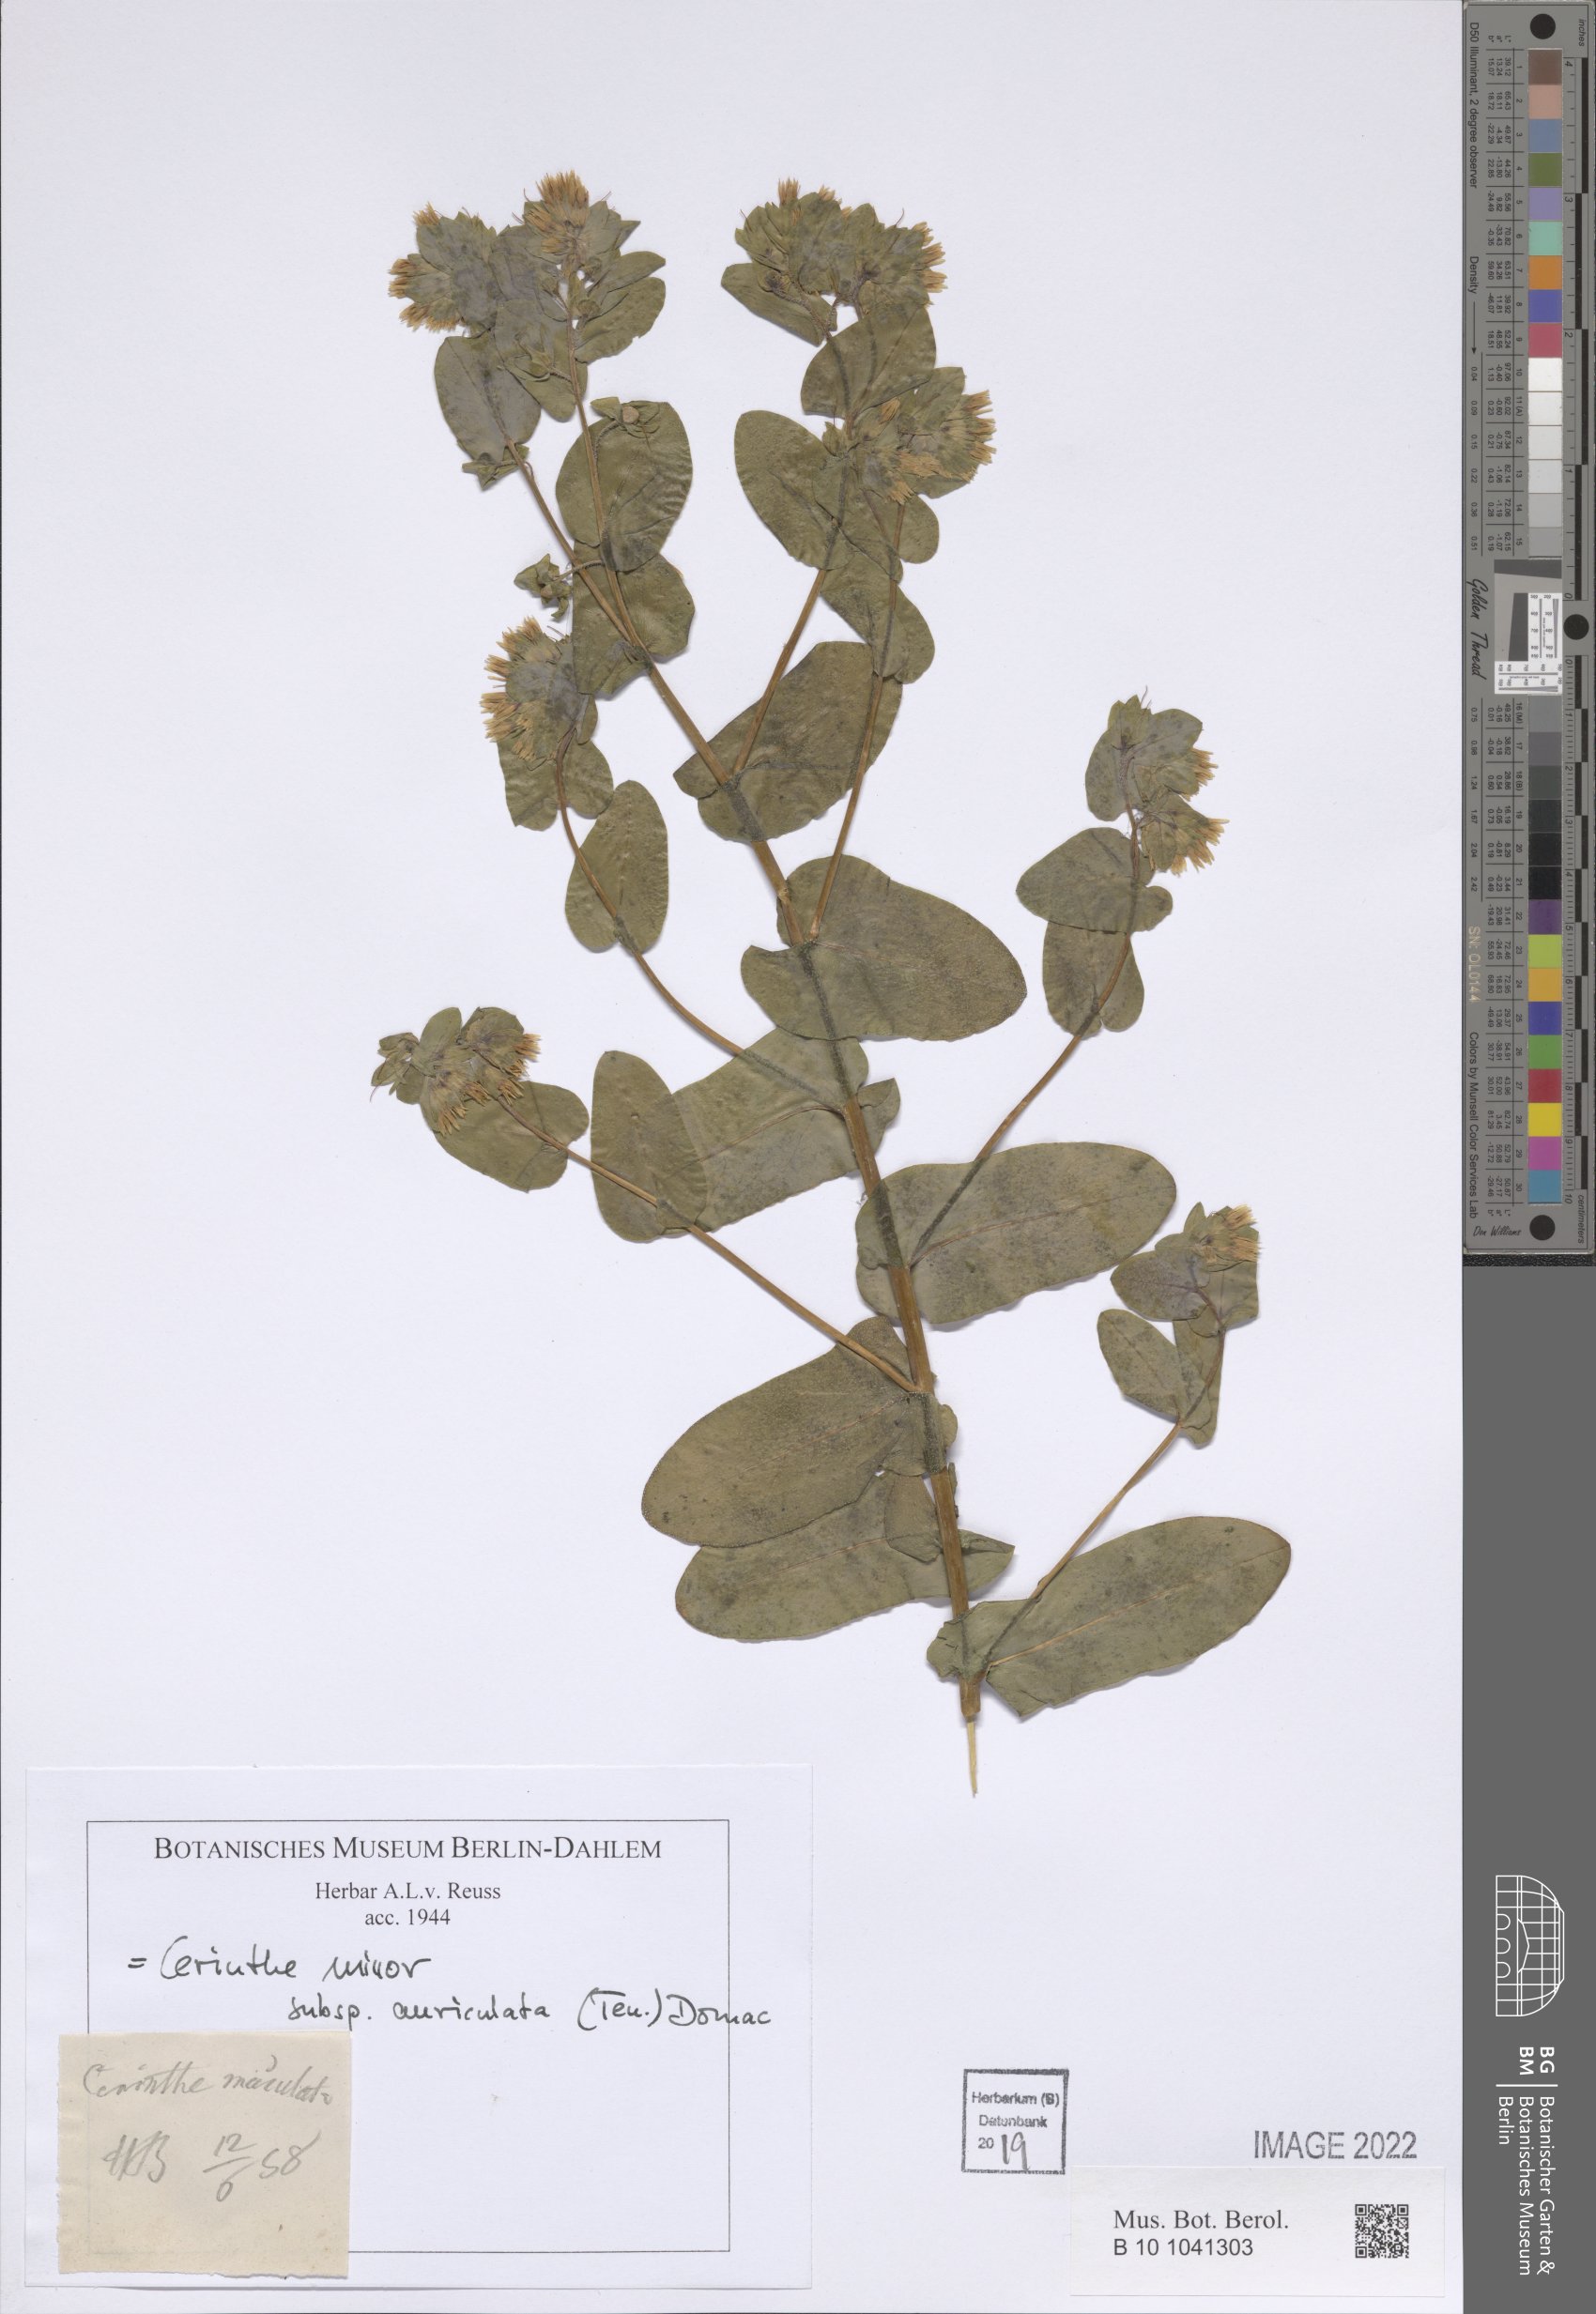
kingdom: Plantae
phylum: Tracheophyta
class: Magnoliopsida
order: Boraginales
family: Boraginaceae
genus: Cerinthe
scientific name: Cerinthe minor
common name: Lesser honeywort
